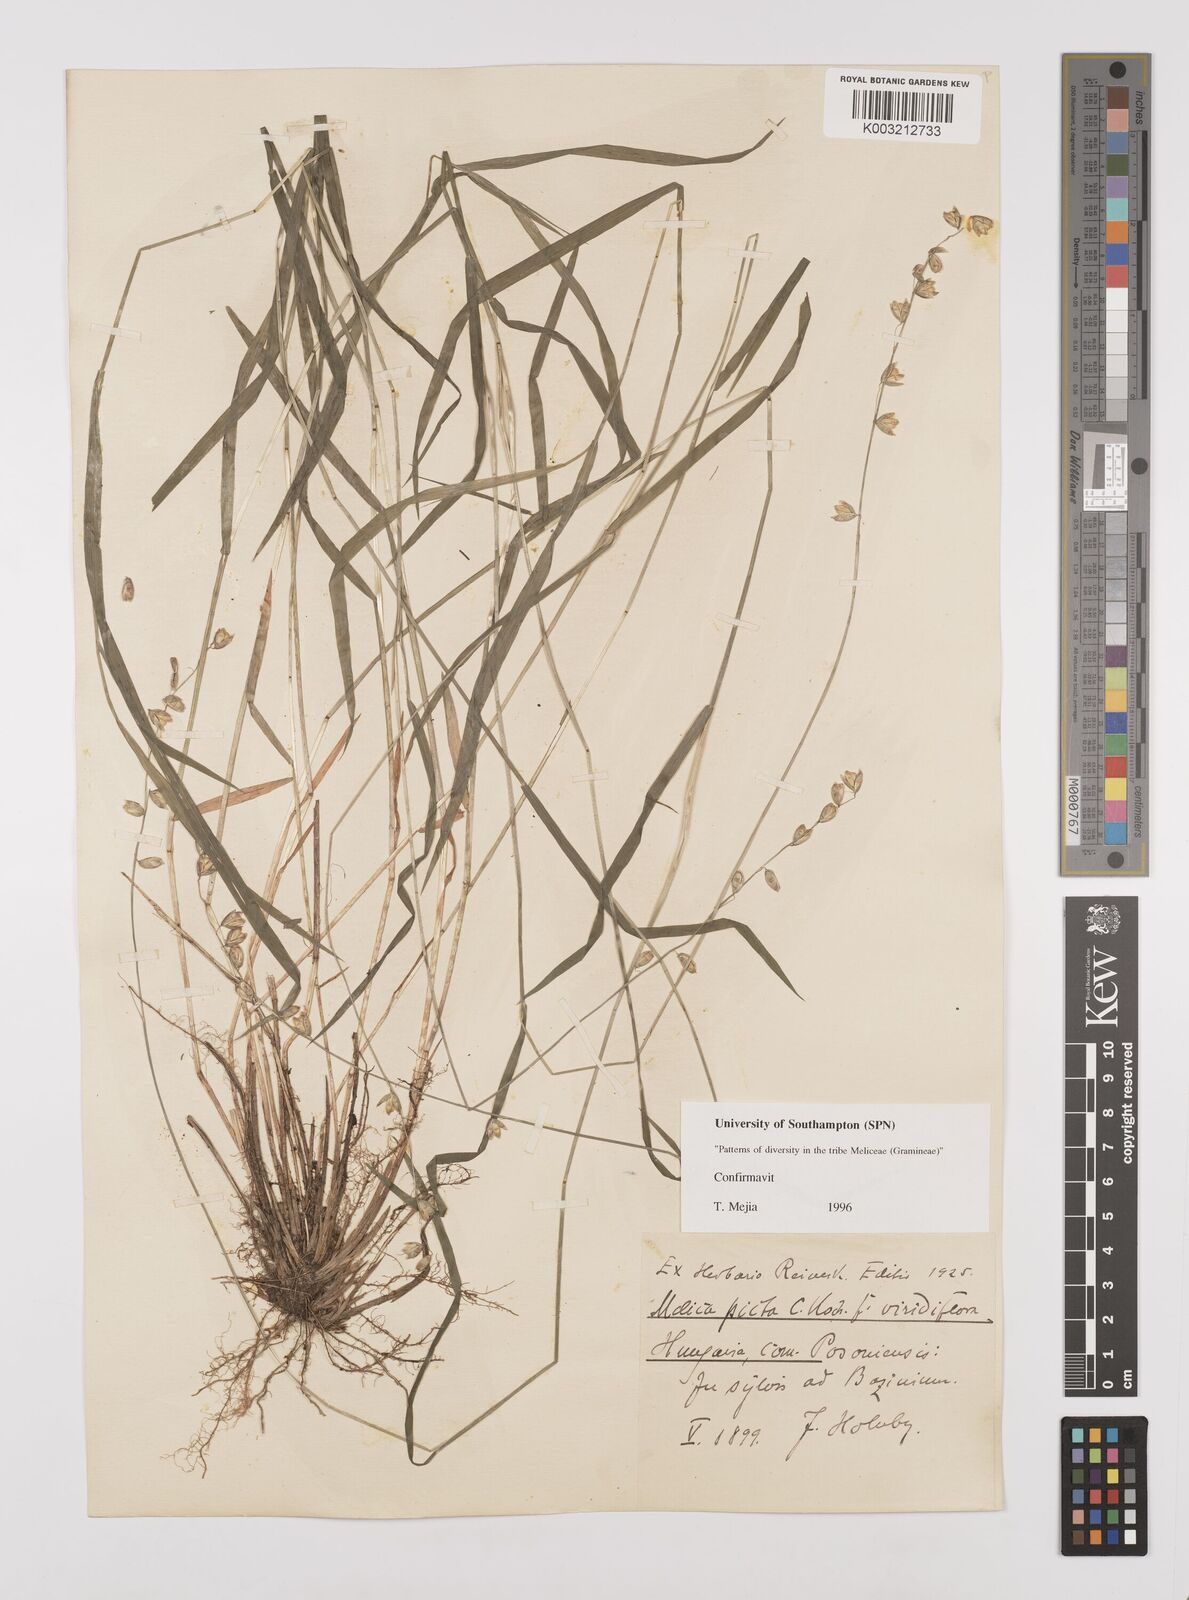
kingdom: Plantae
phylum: Tracheophyta
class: Liliopsida
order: Poales
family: Poaceae
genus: Melica
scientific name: Melica picta
